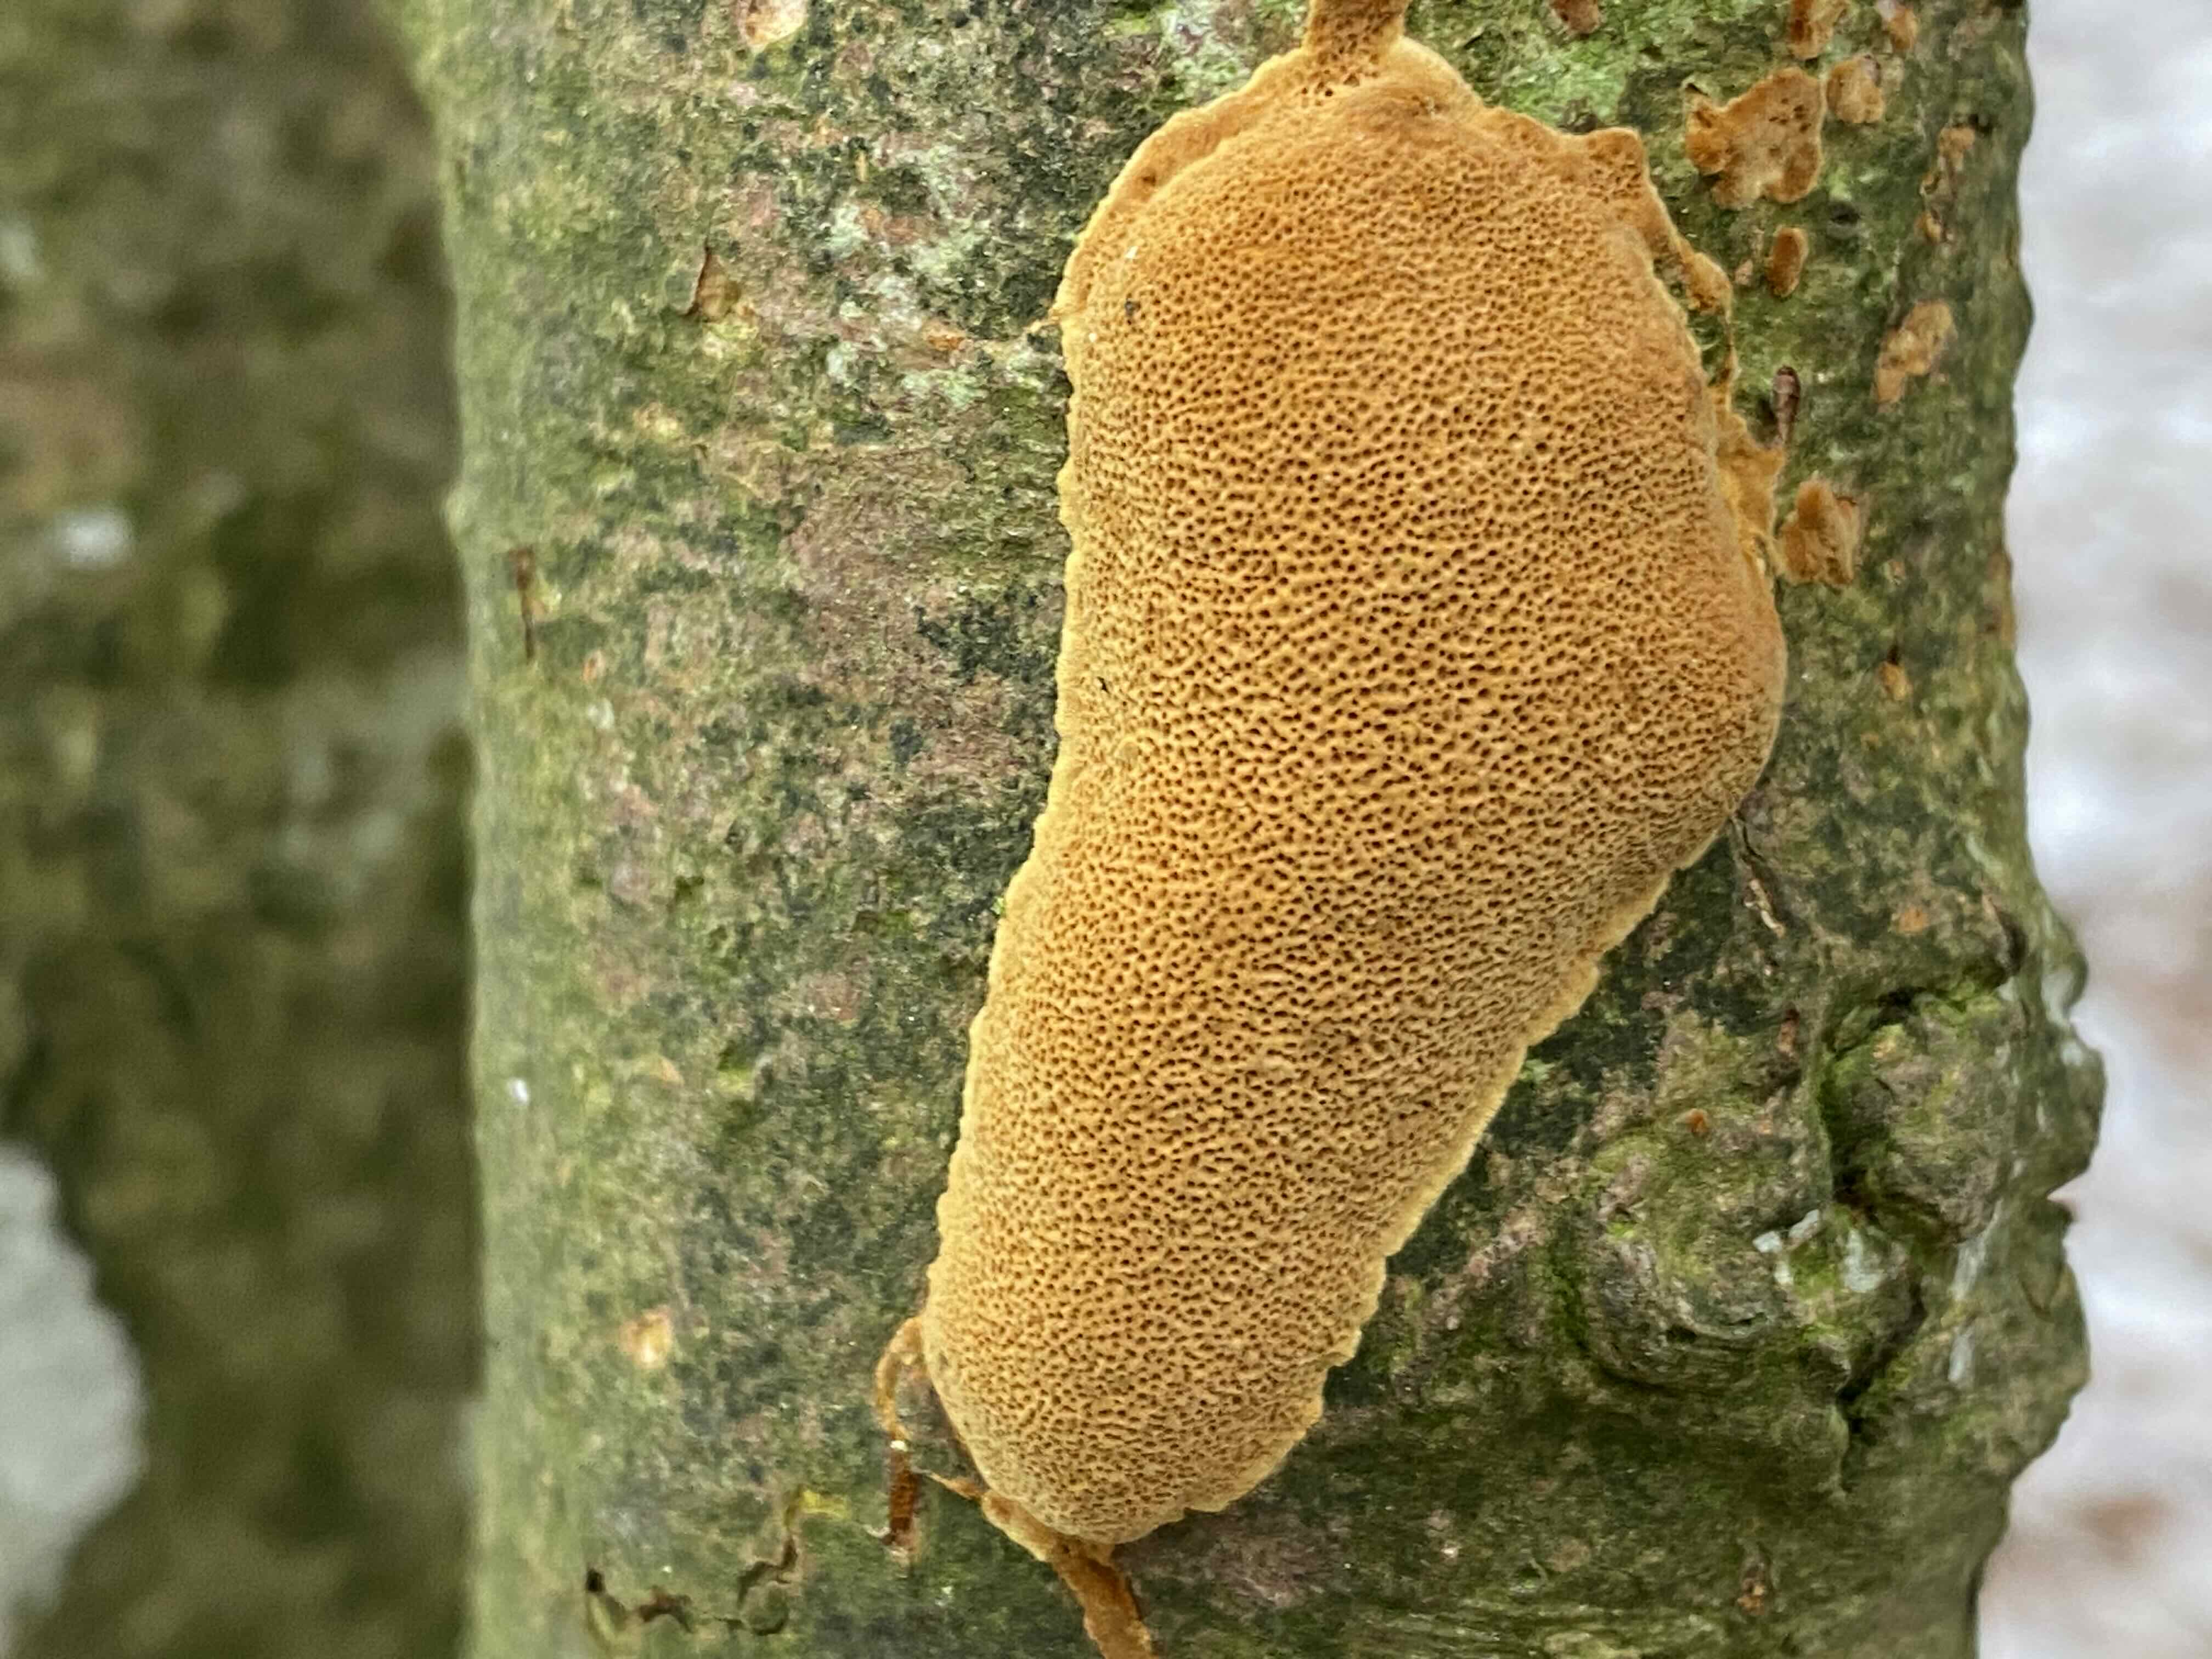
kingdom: Fungi
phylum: Basidiomycota
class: Agaricomycetes
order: Hymenochaetales
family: Hymenochaetaceae
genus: Fuscoporia
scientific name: Fuscoporia ferrea
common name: skorpe-ildporesvamp
